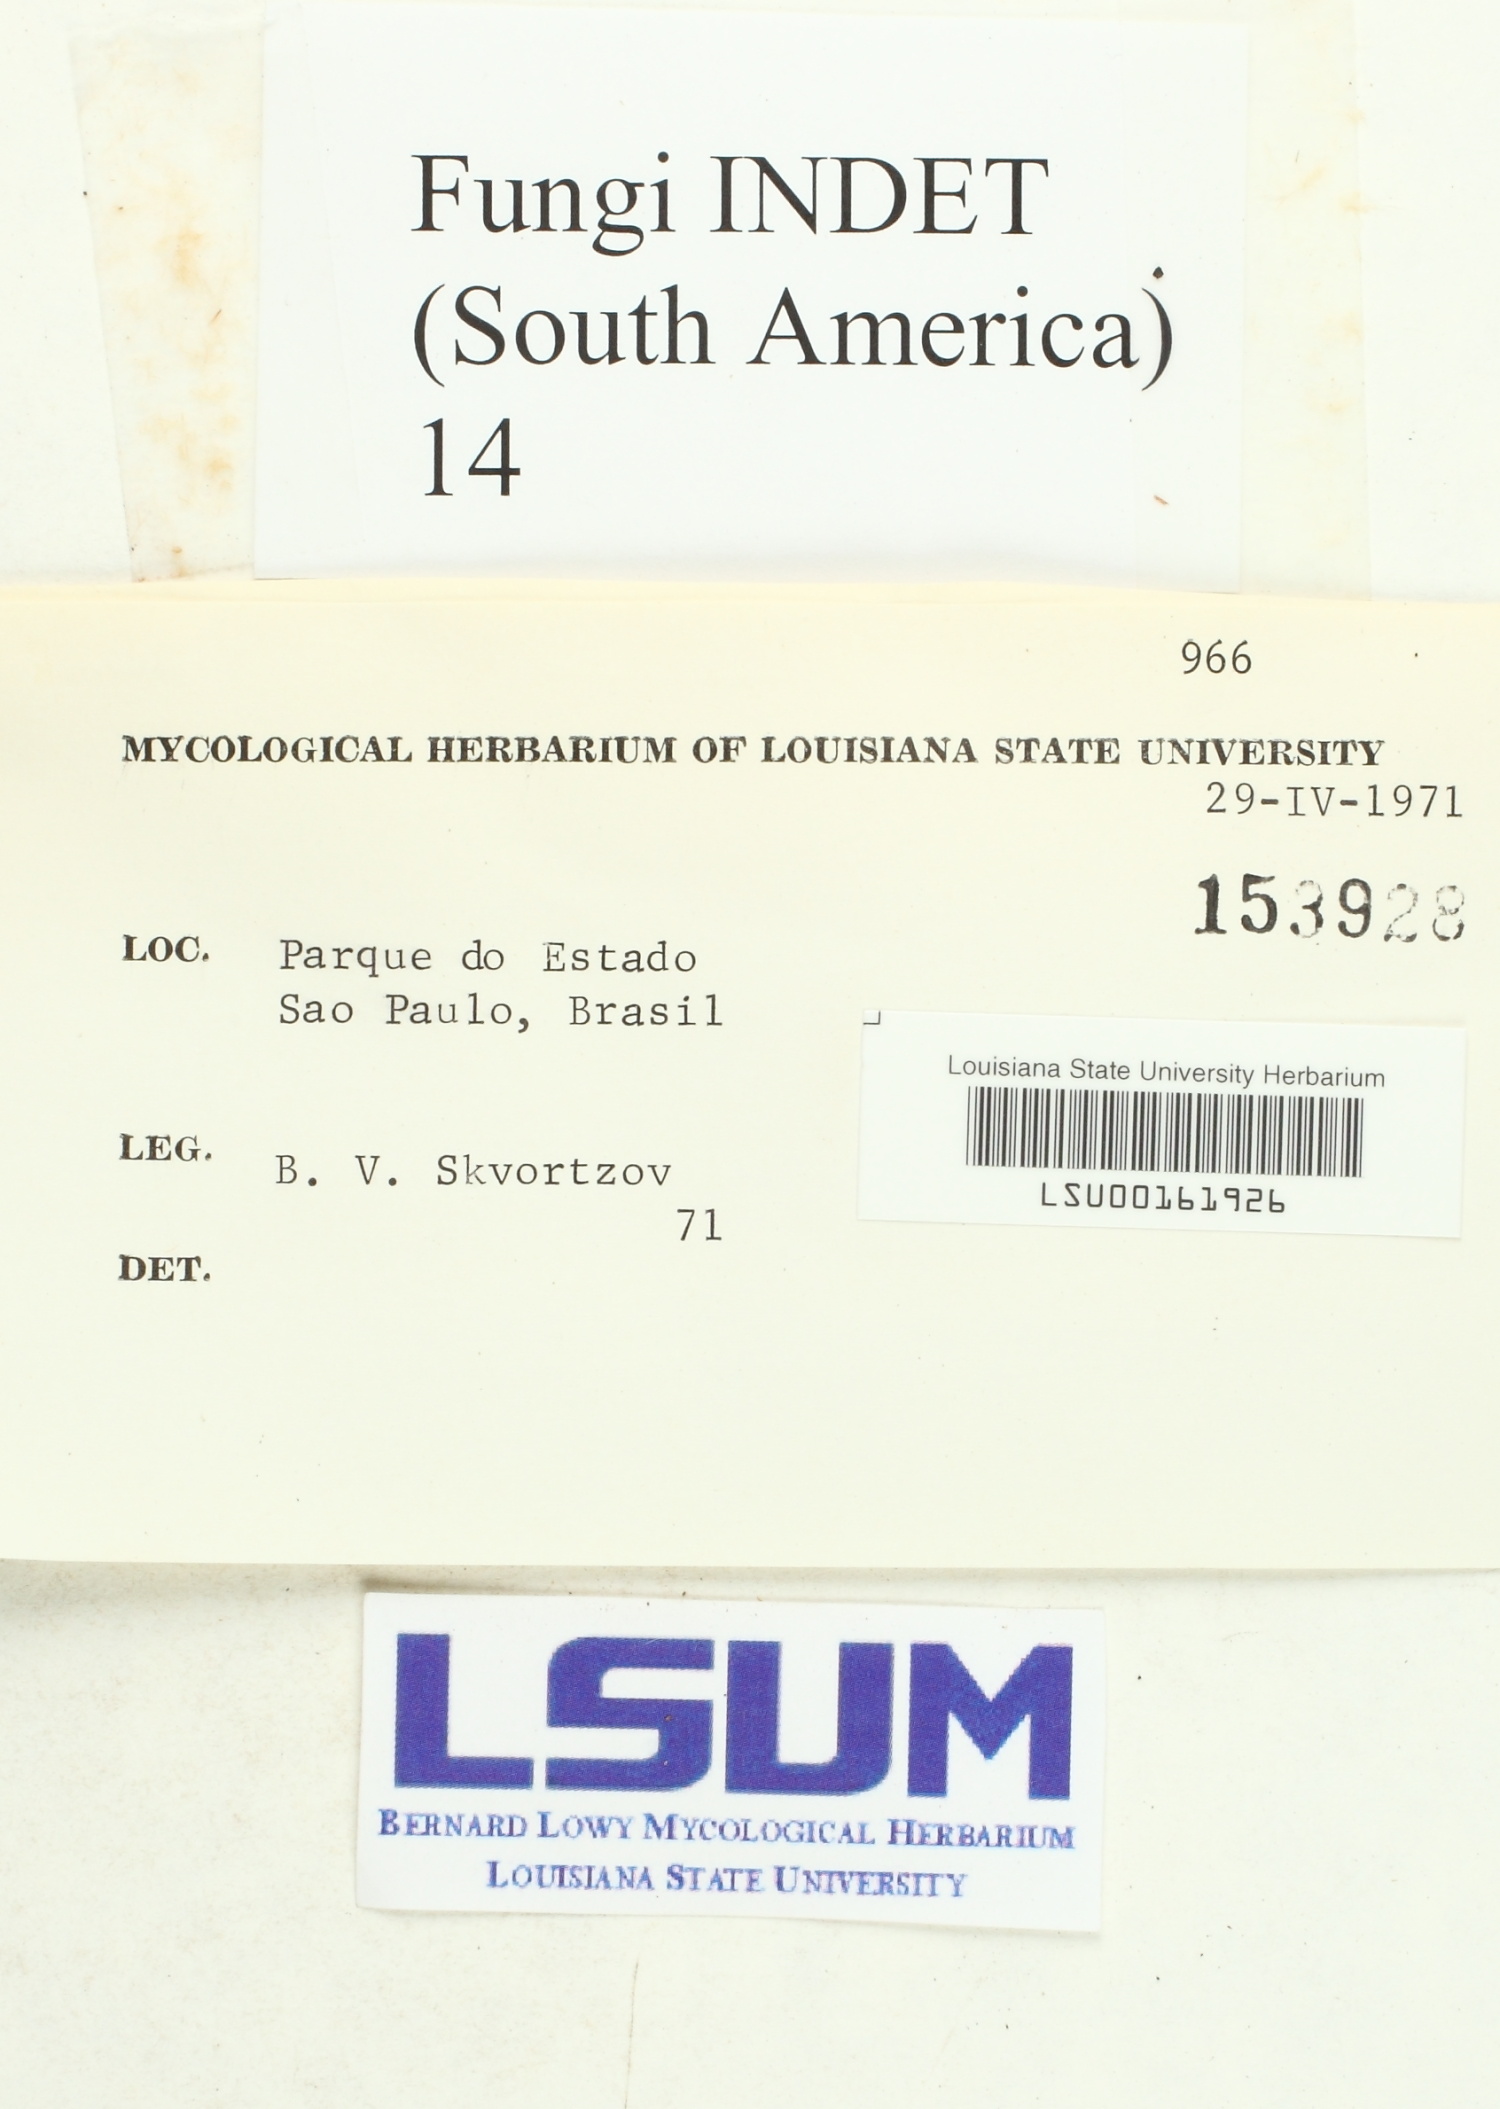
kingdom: Fungi
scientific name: Fungi
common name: Fungi
